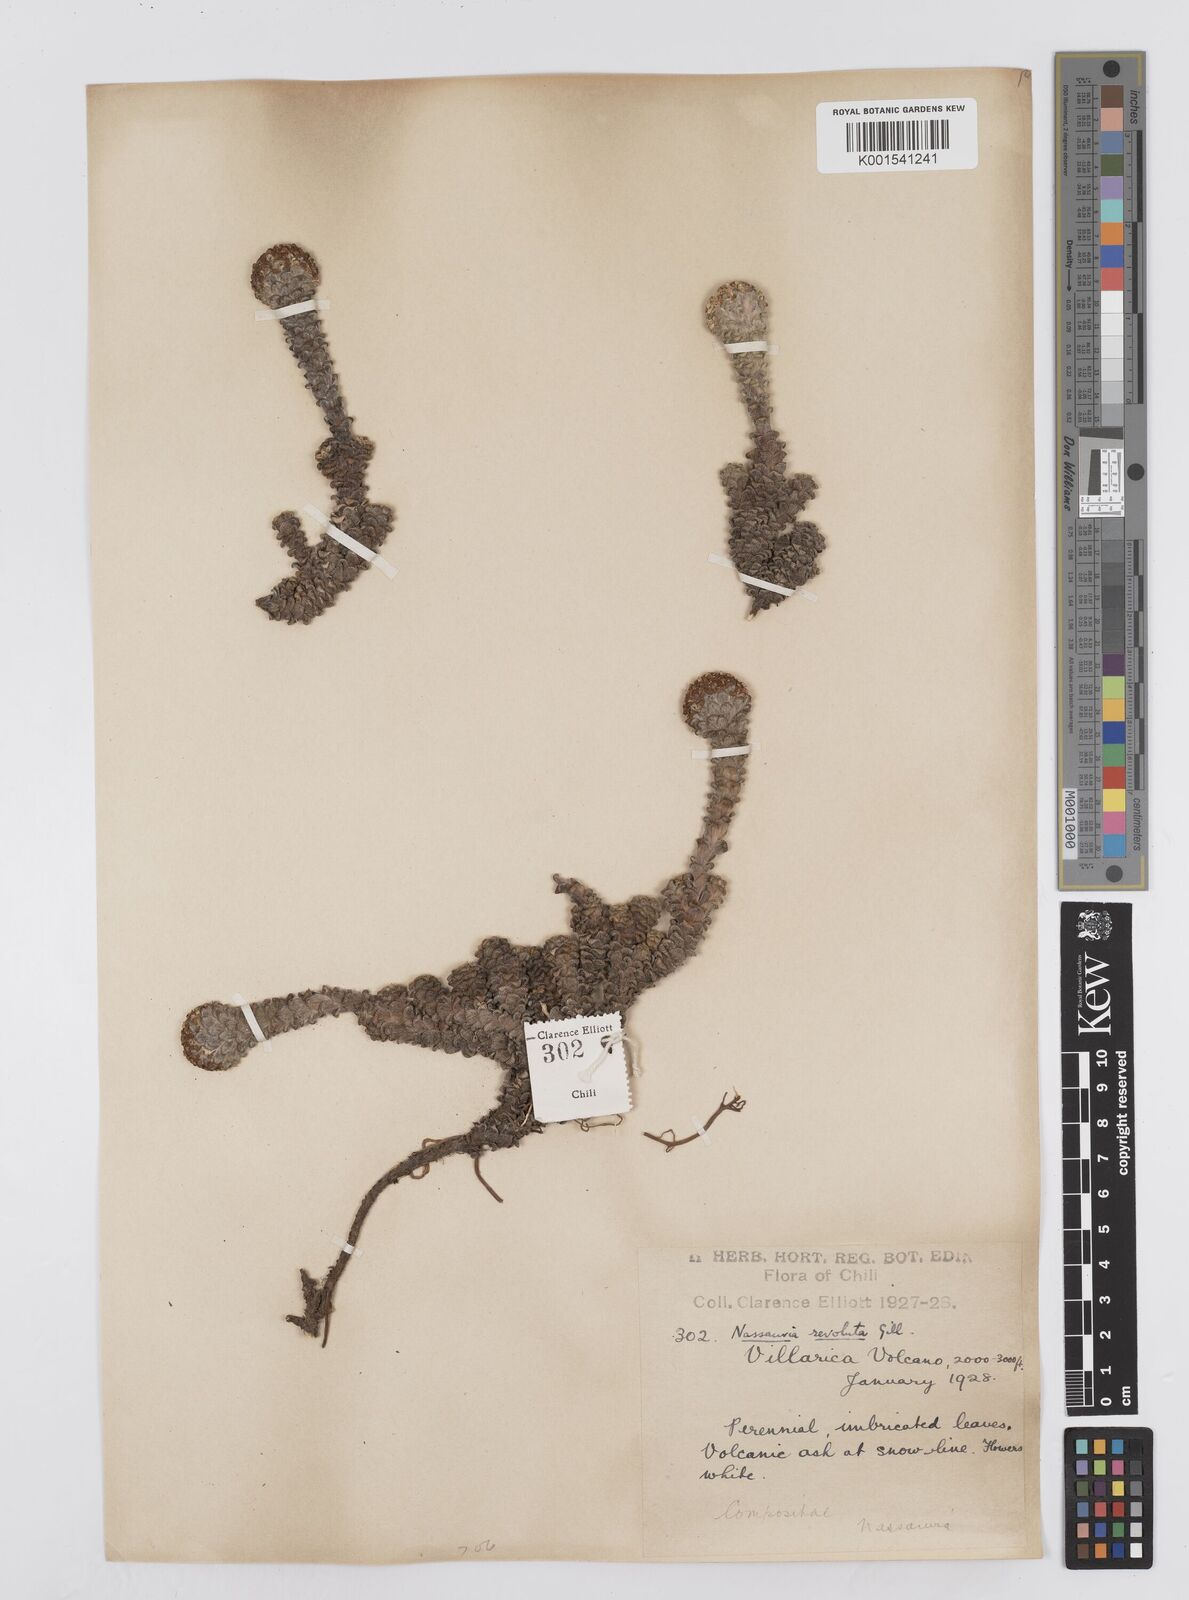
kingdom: Plantae
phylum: Tracheophyta
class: Magnoliopsida
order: Asterales
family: Asteraceae
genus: Nassauvia
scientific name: Nassauvia revoluta
